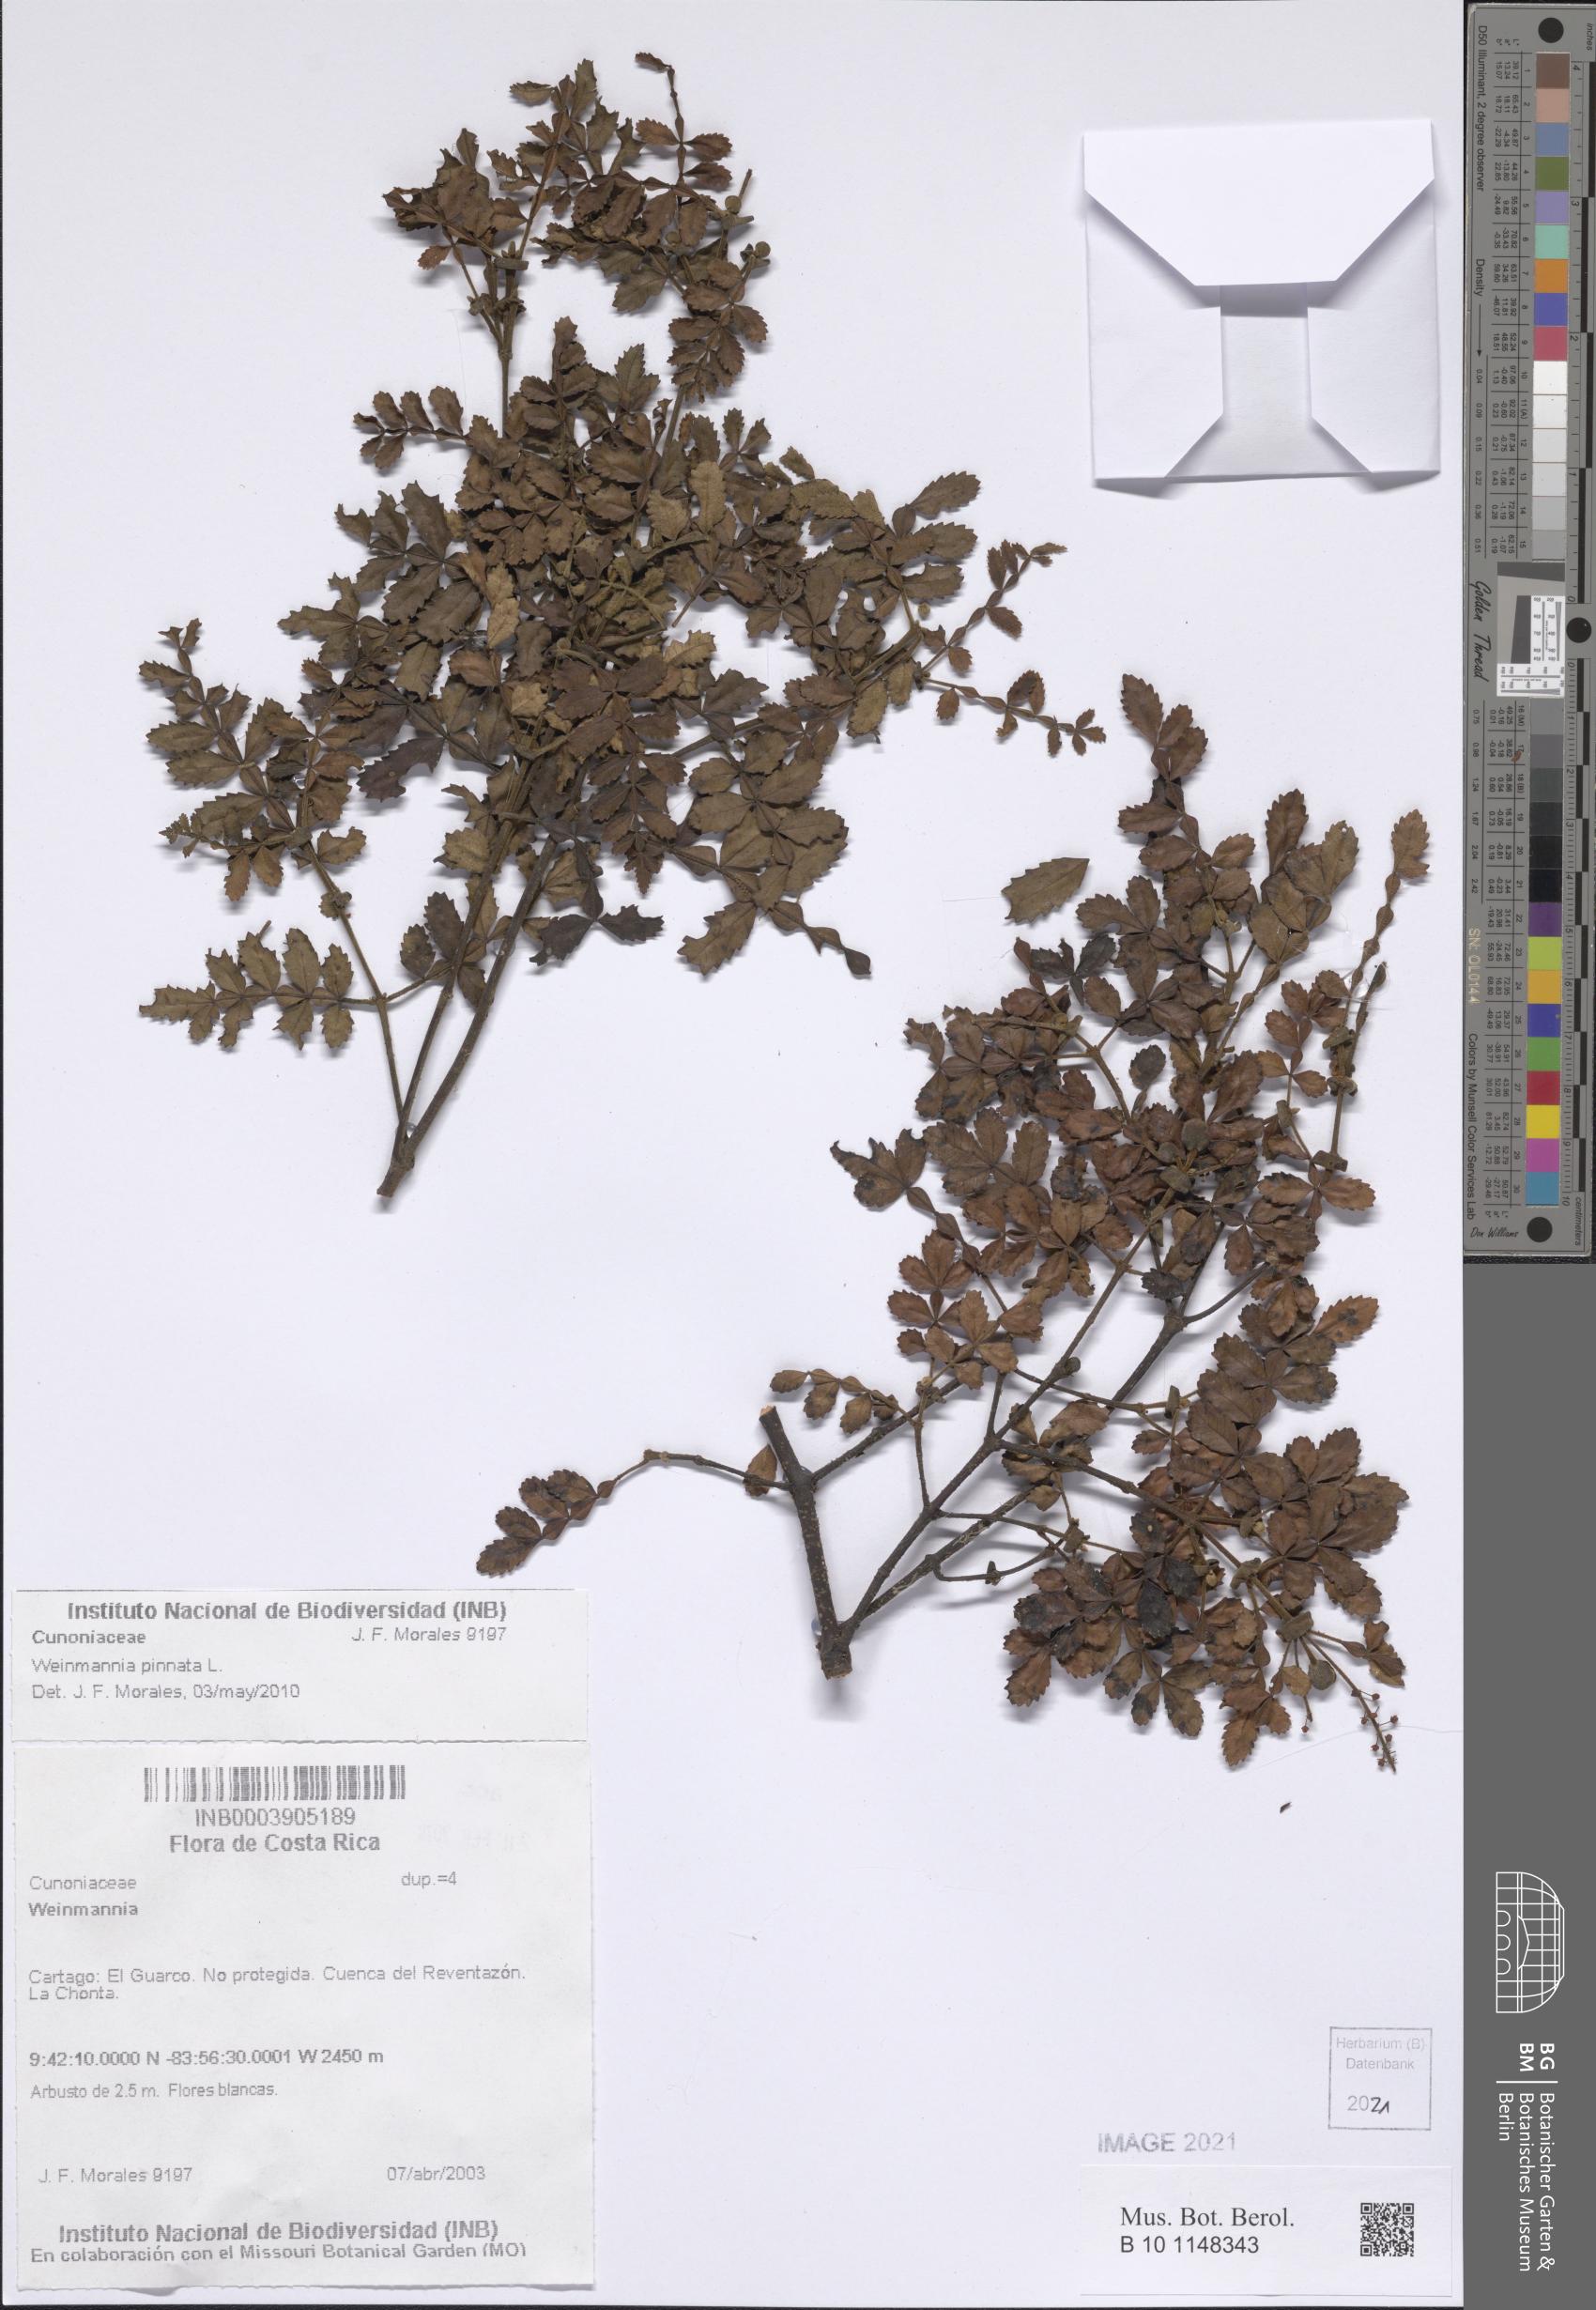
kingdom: Plantae
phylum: Tracheophyta
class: Magnoliopsida
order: Oxalidales
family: Cunoniaceae
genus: Weinmannia
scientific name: Weinmannia pinnata
